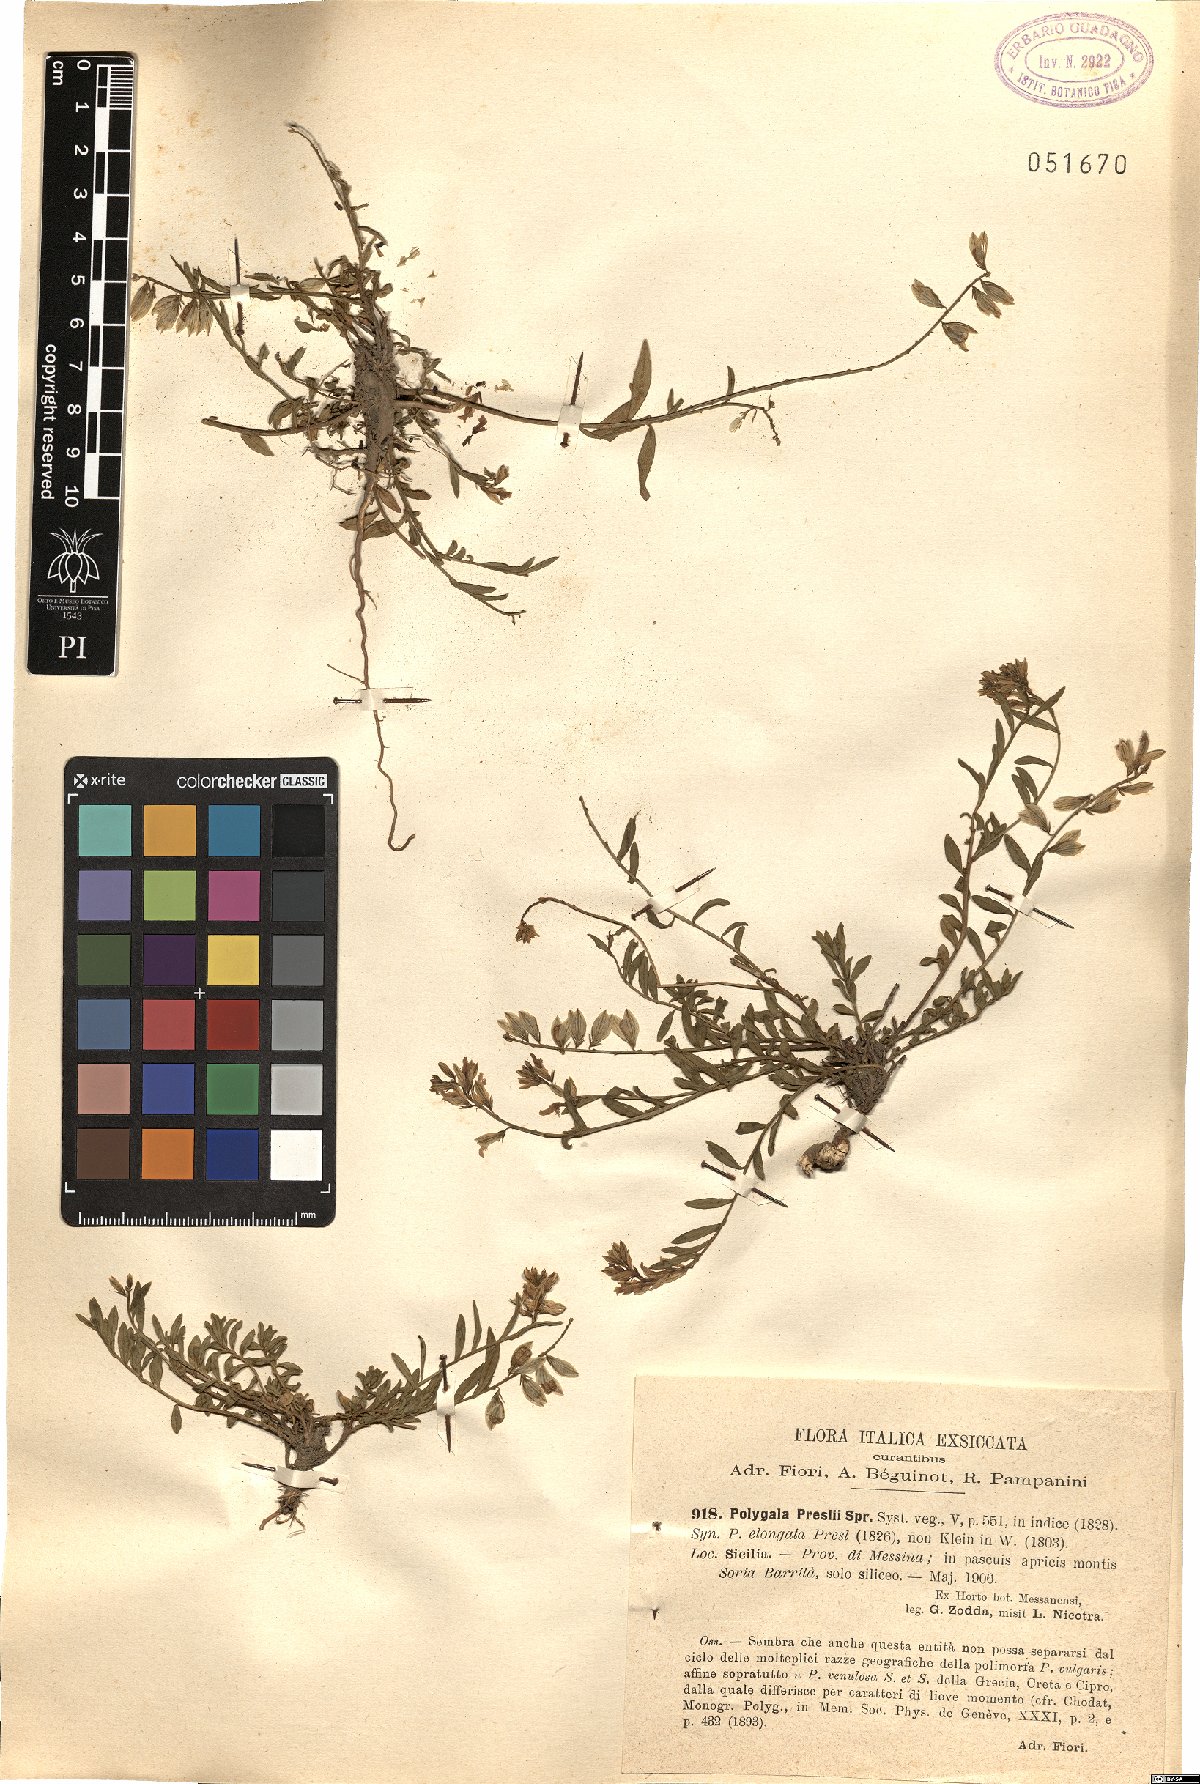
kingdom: Plantae
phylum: Tracheophyta
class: Magnoliopsida
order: Fabales
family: Polygalaceae
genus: Polygala
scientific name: Polygala preslii
